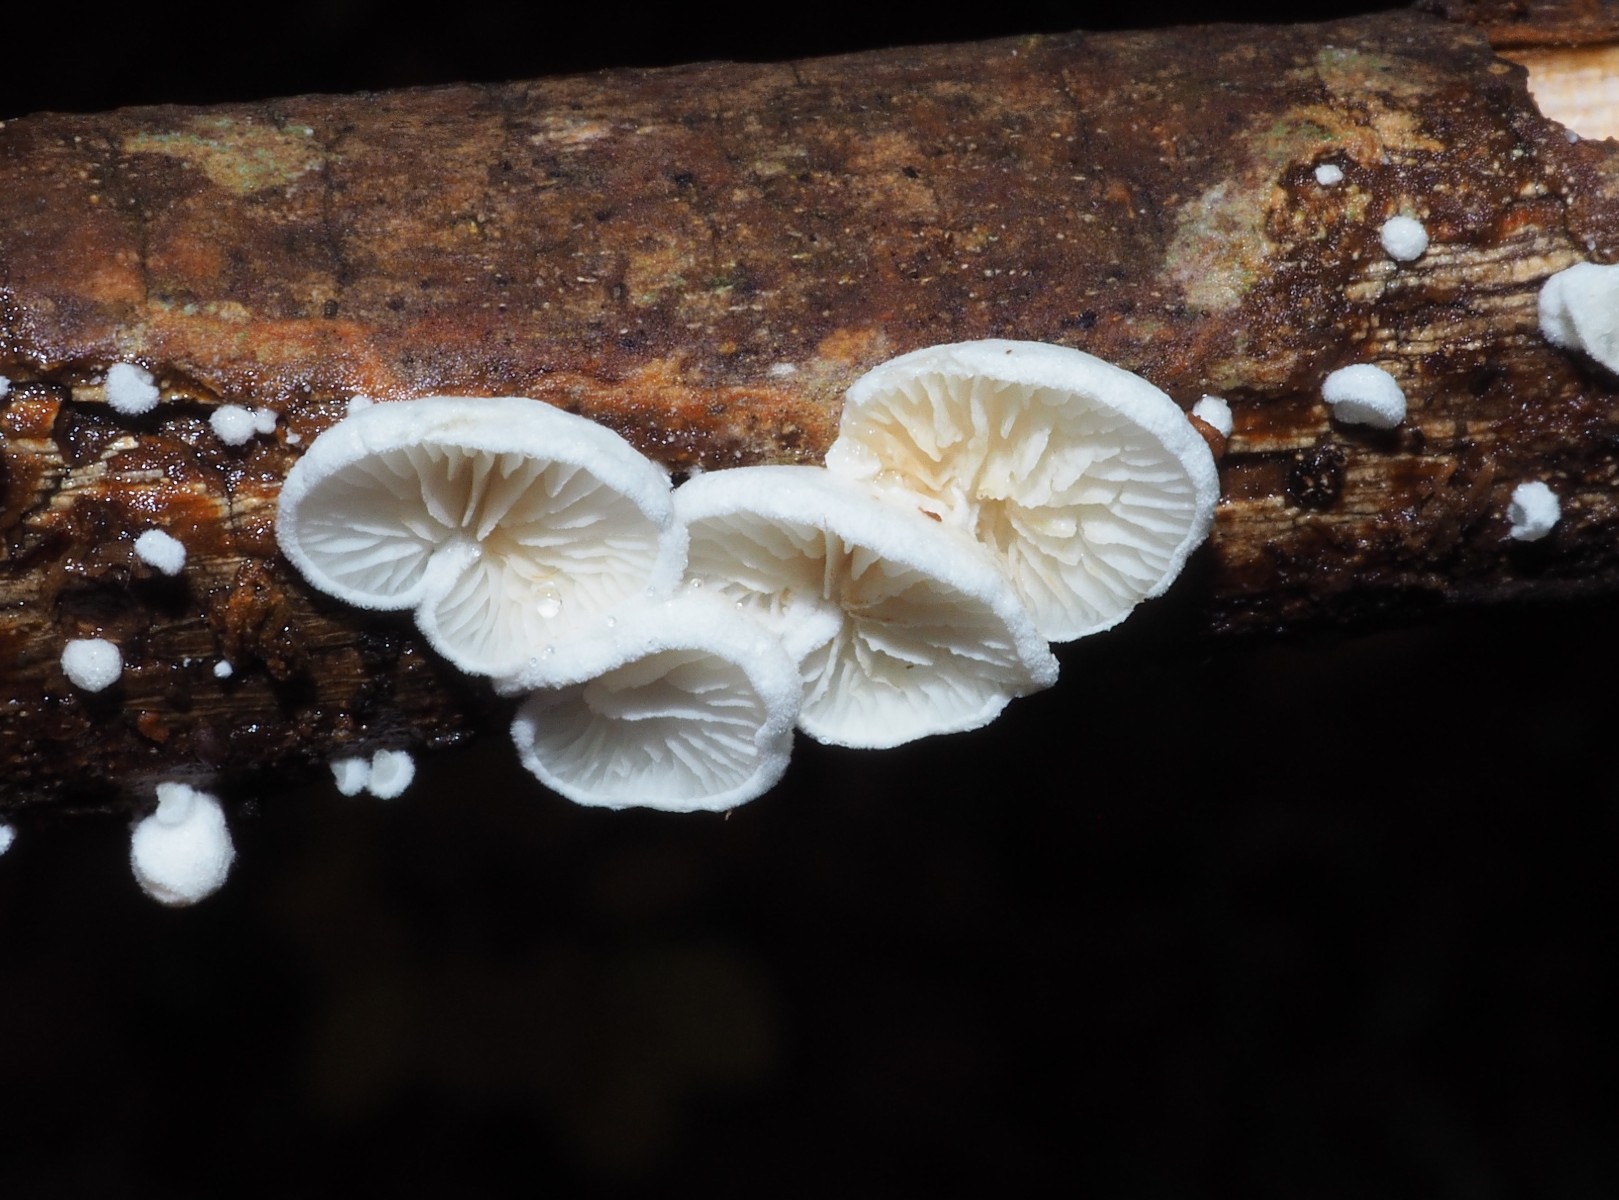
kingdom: Fungi
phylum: Basidiomycota
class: Agaricomycetes
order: Agaricales
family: Crepidotaceae
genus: Crepidotus
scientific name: Crepidotus epibryus
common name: førne-muslingesvamp
